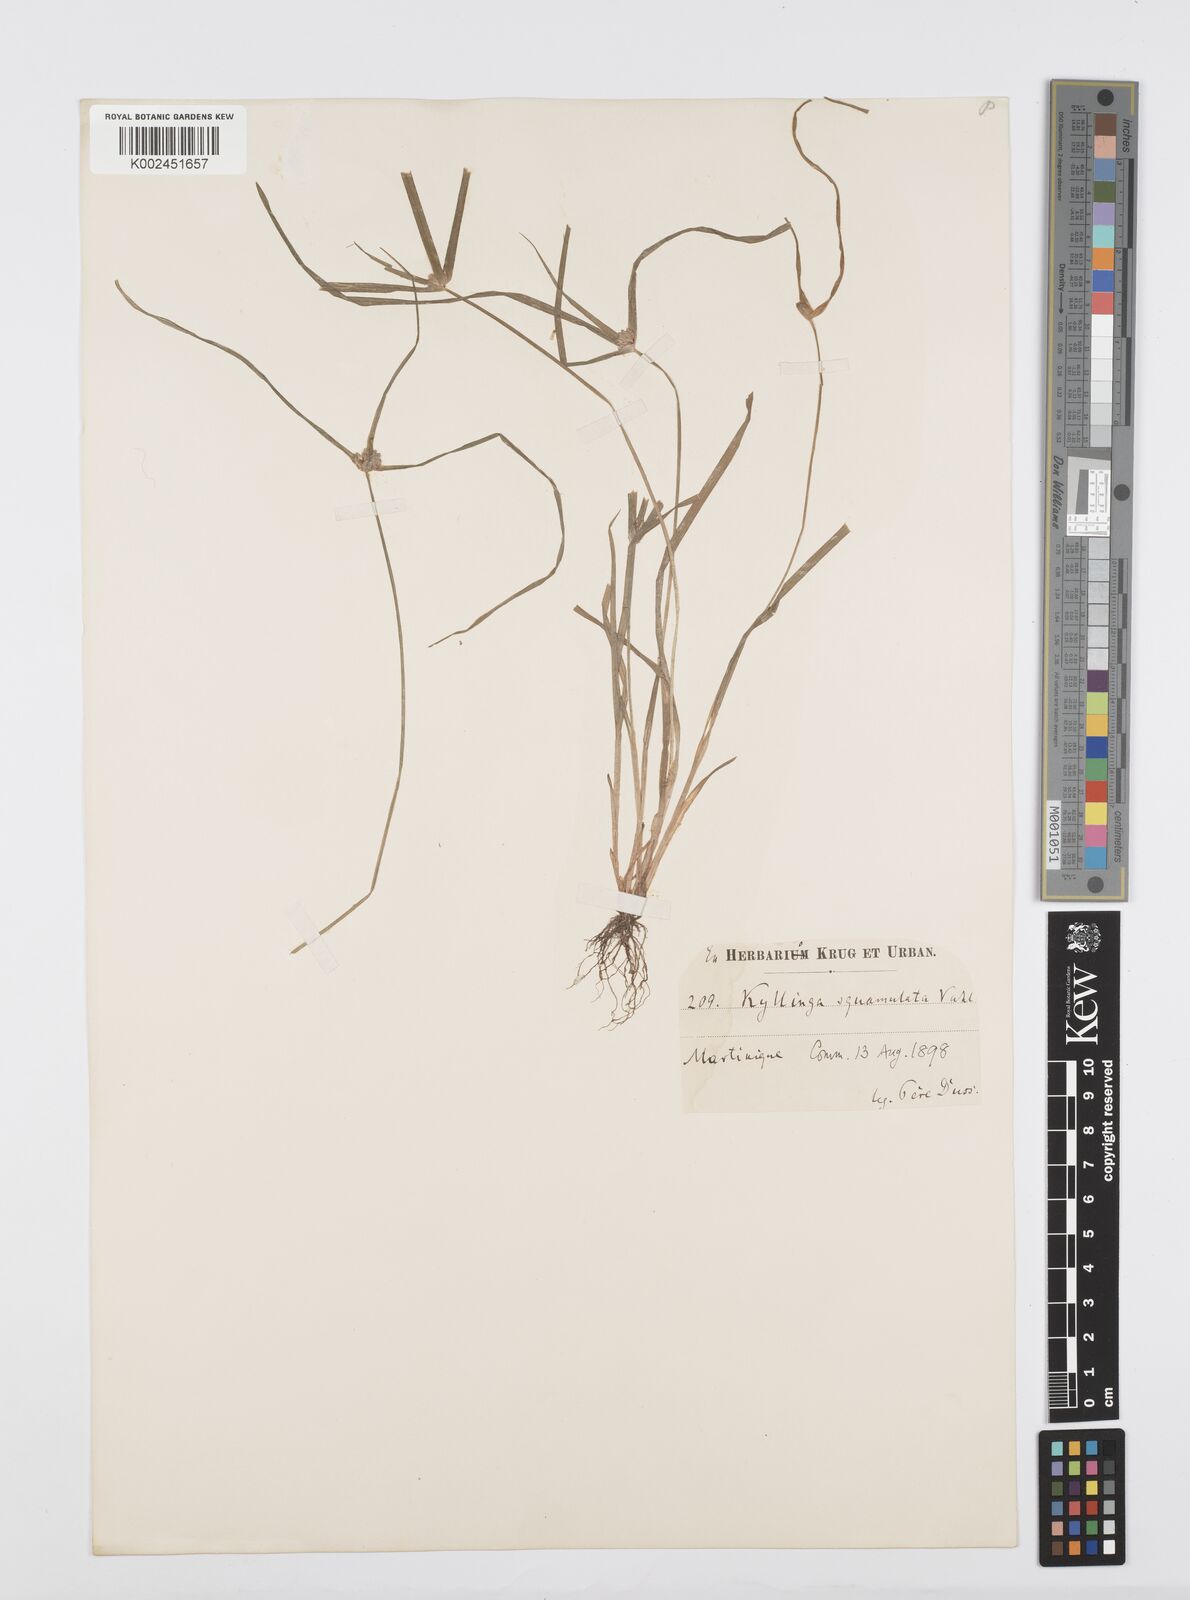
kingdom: Plantae
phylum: Tracheophyta
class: Liliopsida
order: Poales
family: Cyperaceae
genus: Cyperus
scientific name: Cyperus distans
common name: Slender cyperus
